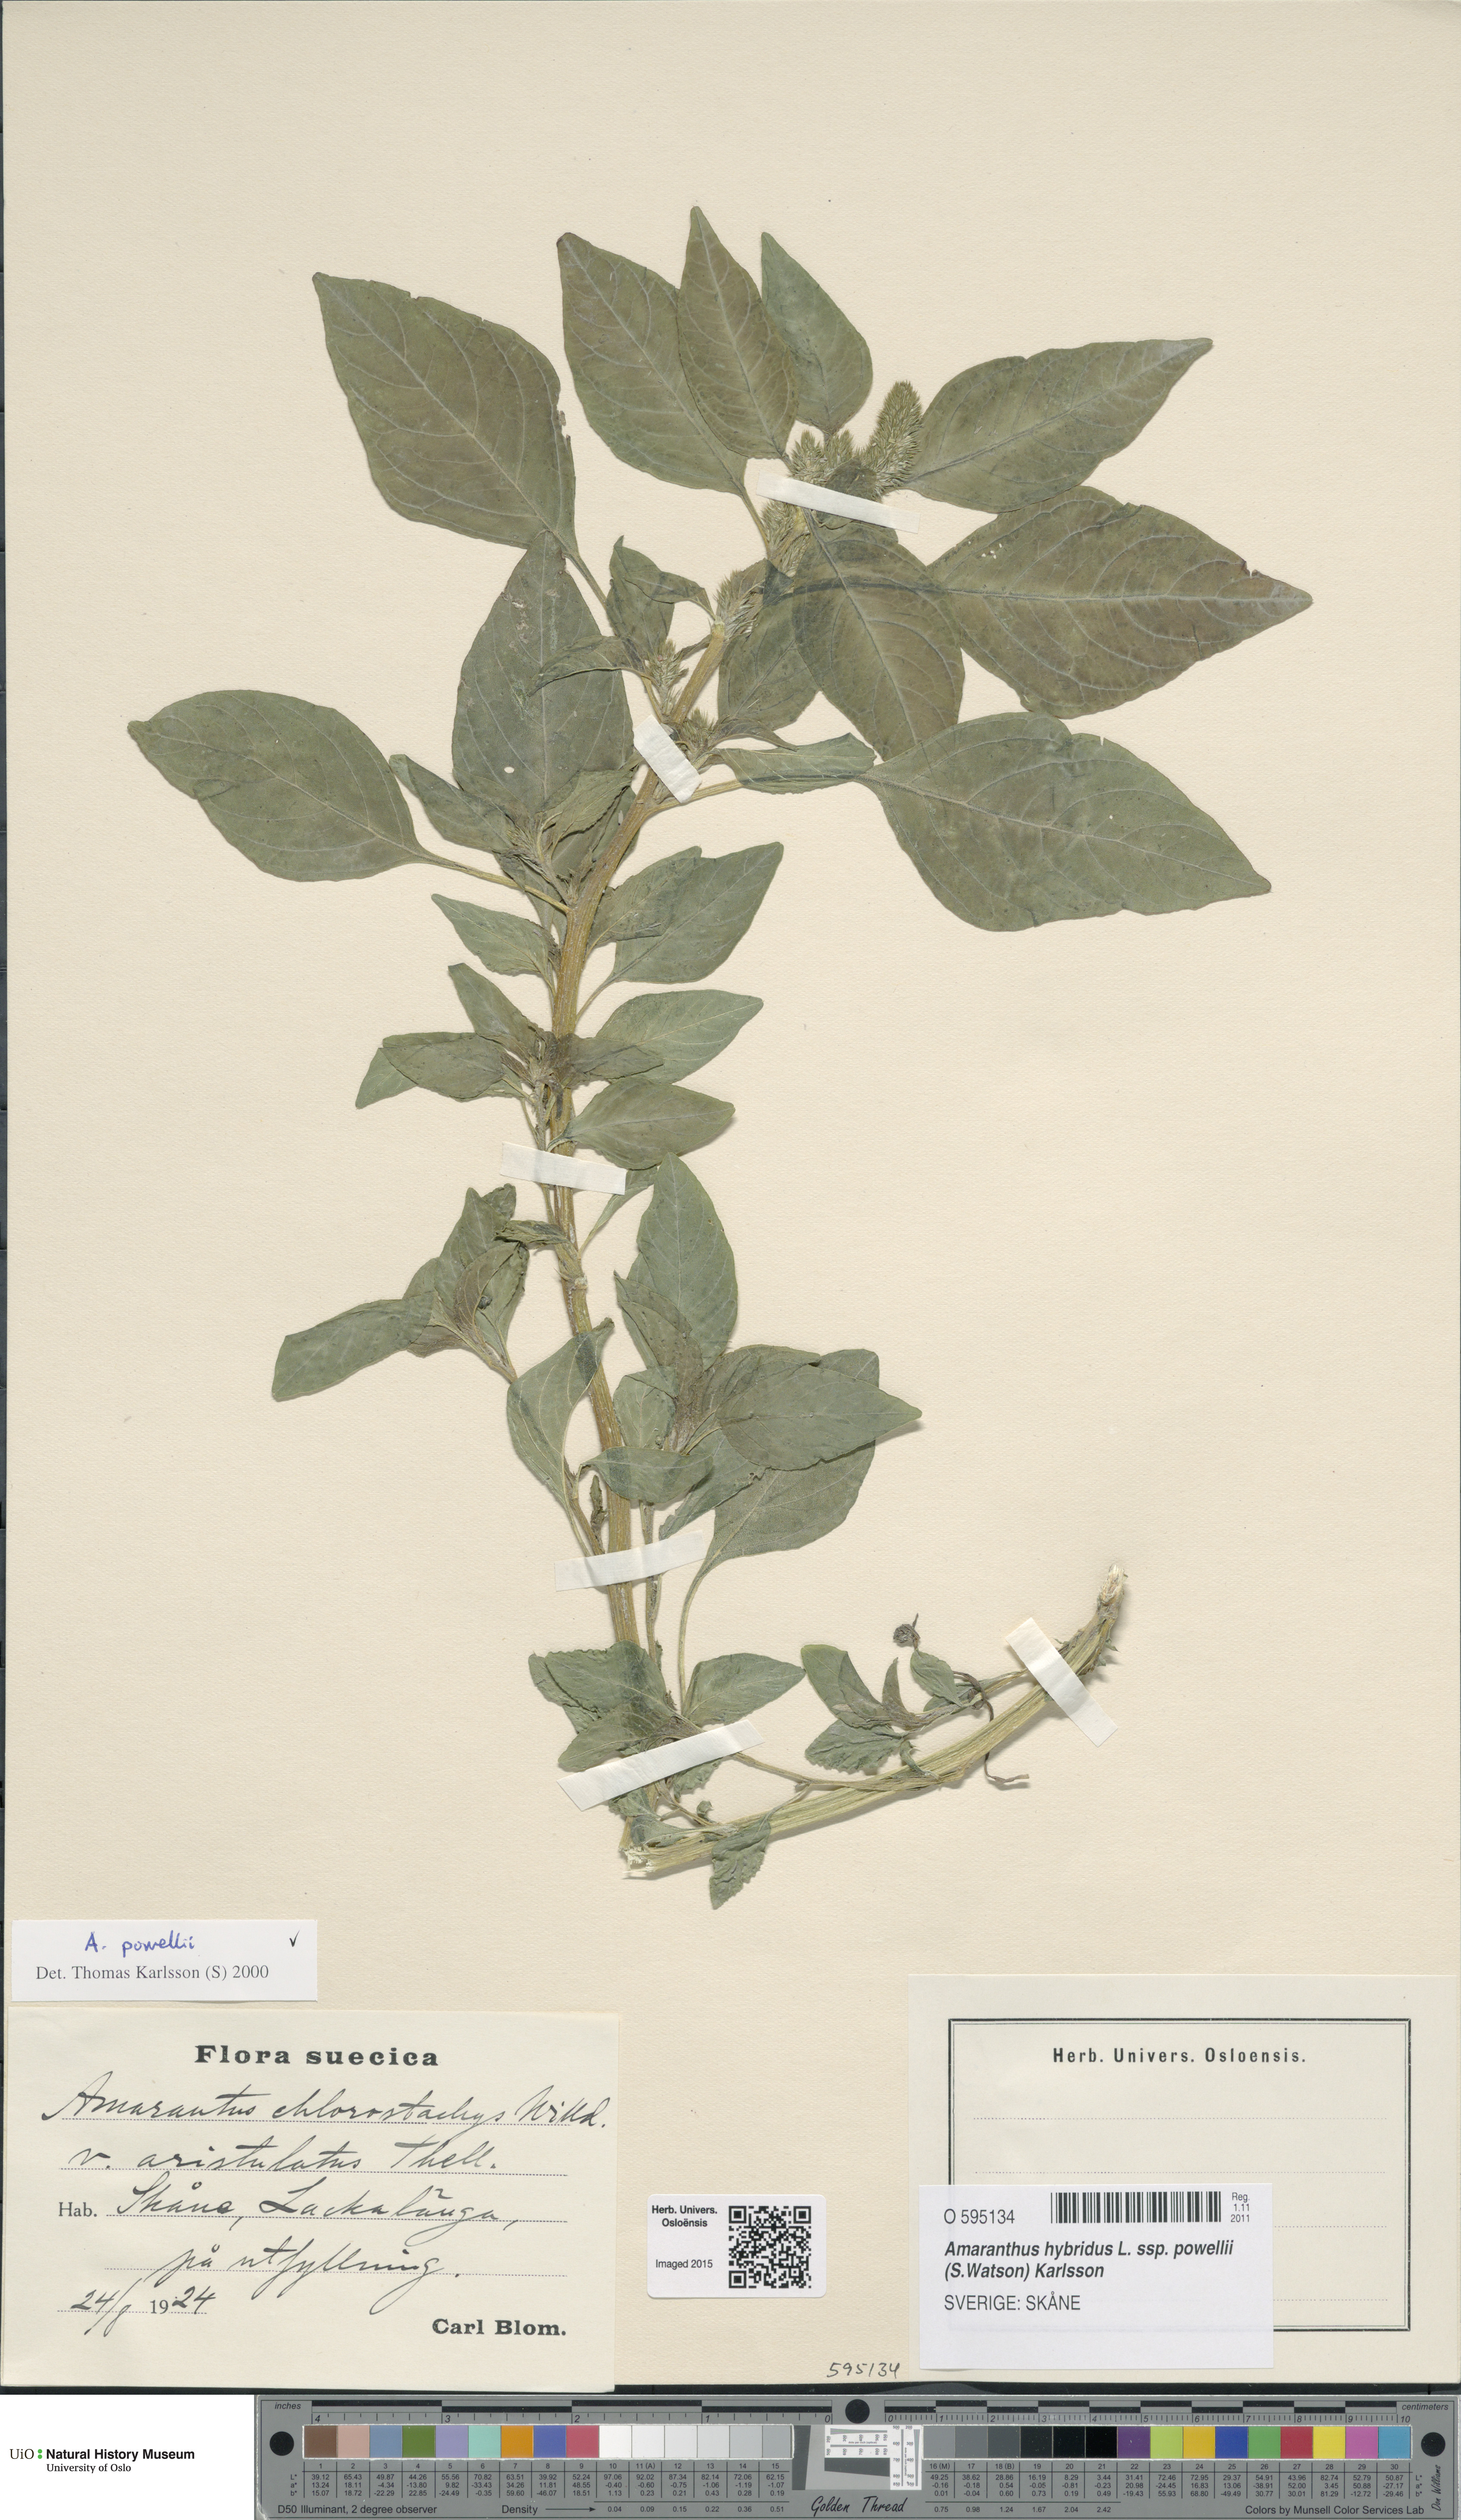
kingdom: Plantae
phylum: Tracheophyta
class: Magnoliopsida
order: Caryophyllales
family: Amaranthaceae
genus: Amaranthus
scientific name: Amaranthus powellii
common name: Powell's amaranth
